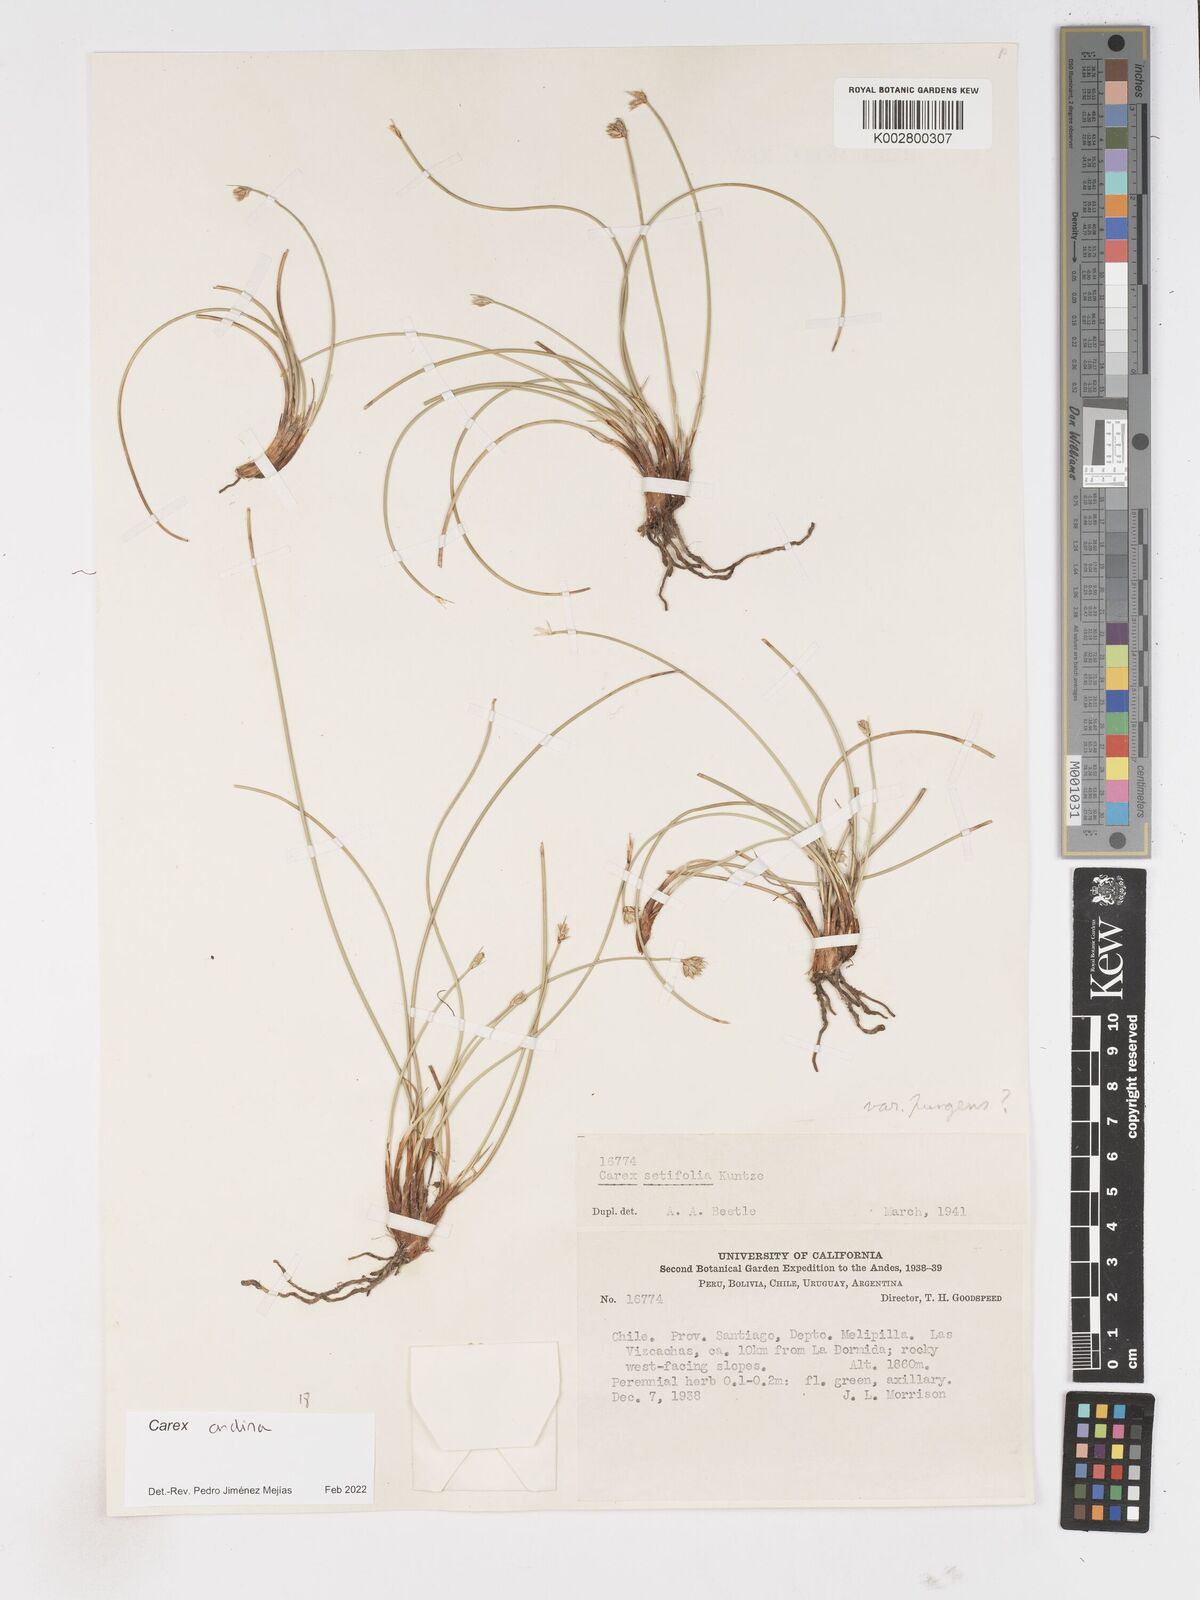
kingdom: Plantae
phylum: Tracheophyta
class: Liliopsida
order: Poales
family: Cyperaceae
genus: Carex
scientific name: Carex andina
